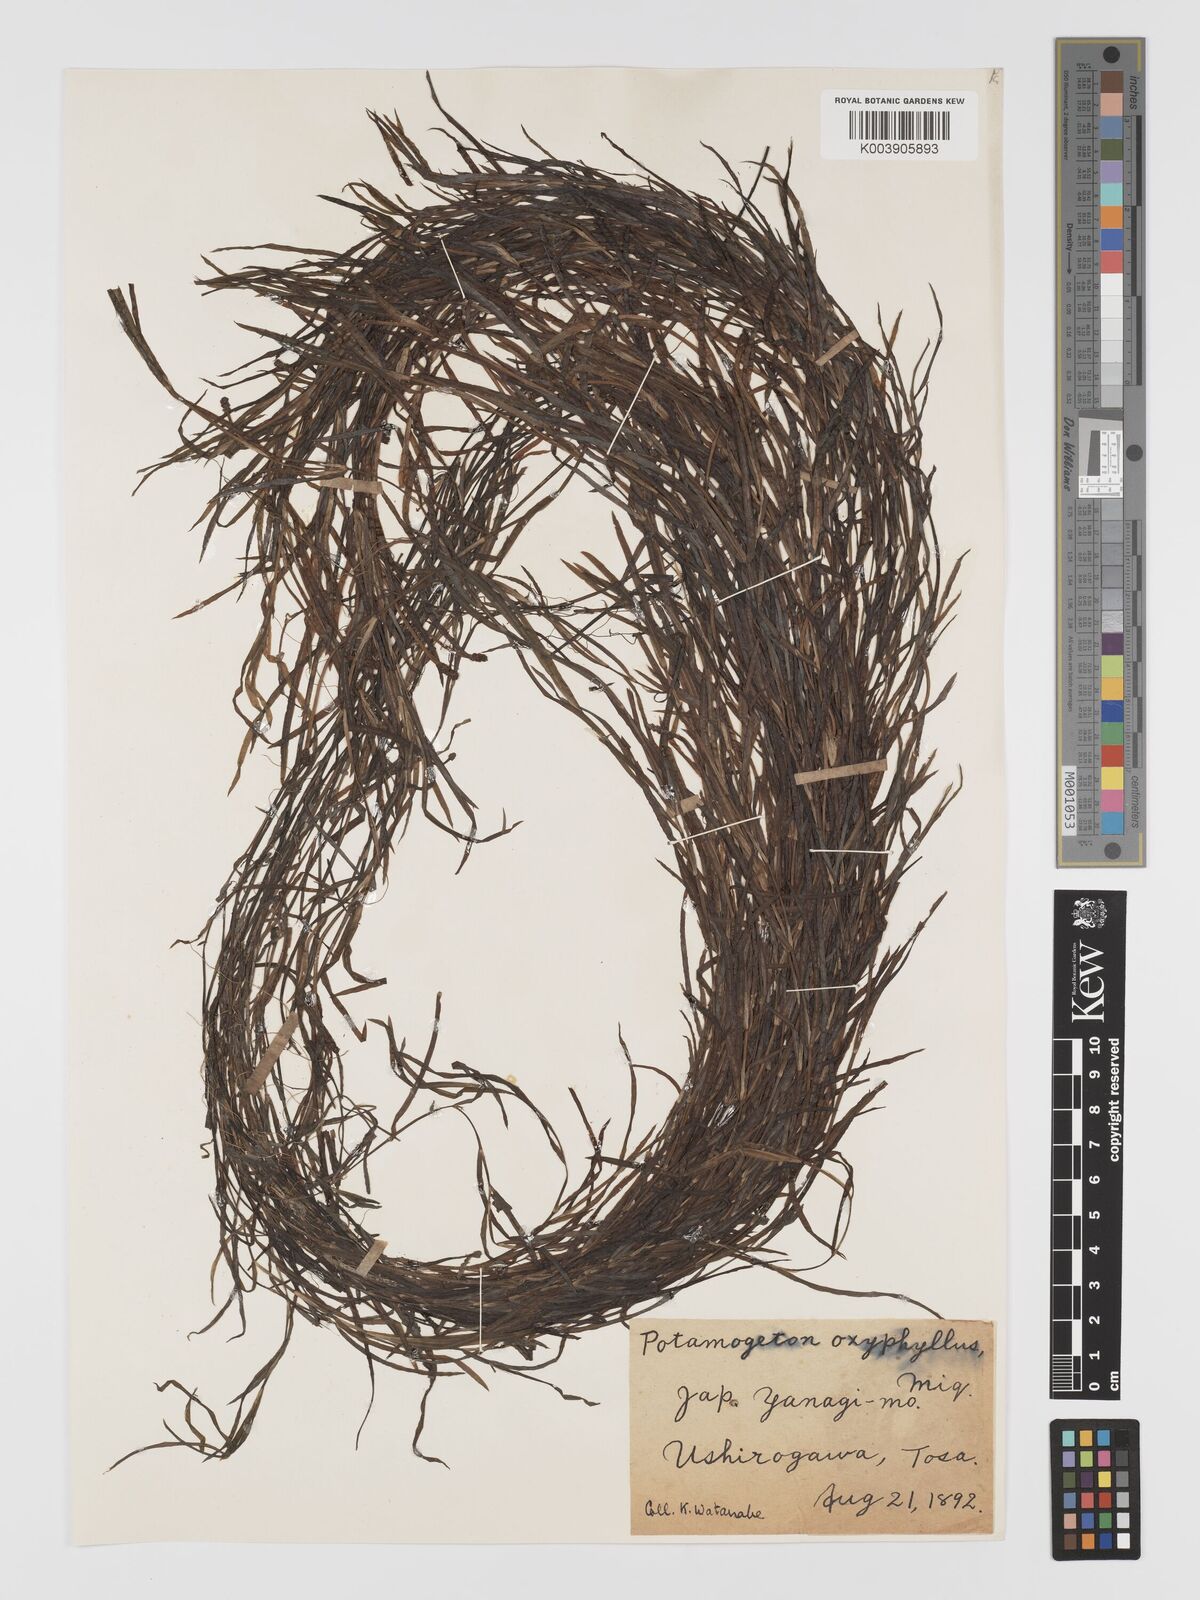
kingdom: Plantae
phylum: Tracheophyta
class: Liliopsida
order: Alismatales
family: Potamogetonaceae
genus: Potamogeton
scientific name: Potamogeton oxyphyllus
